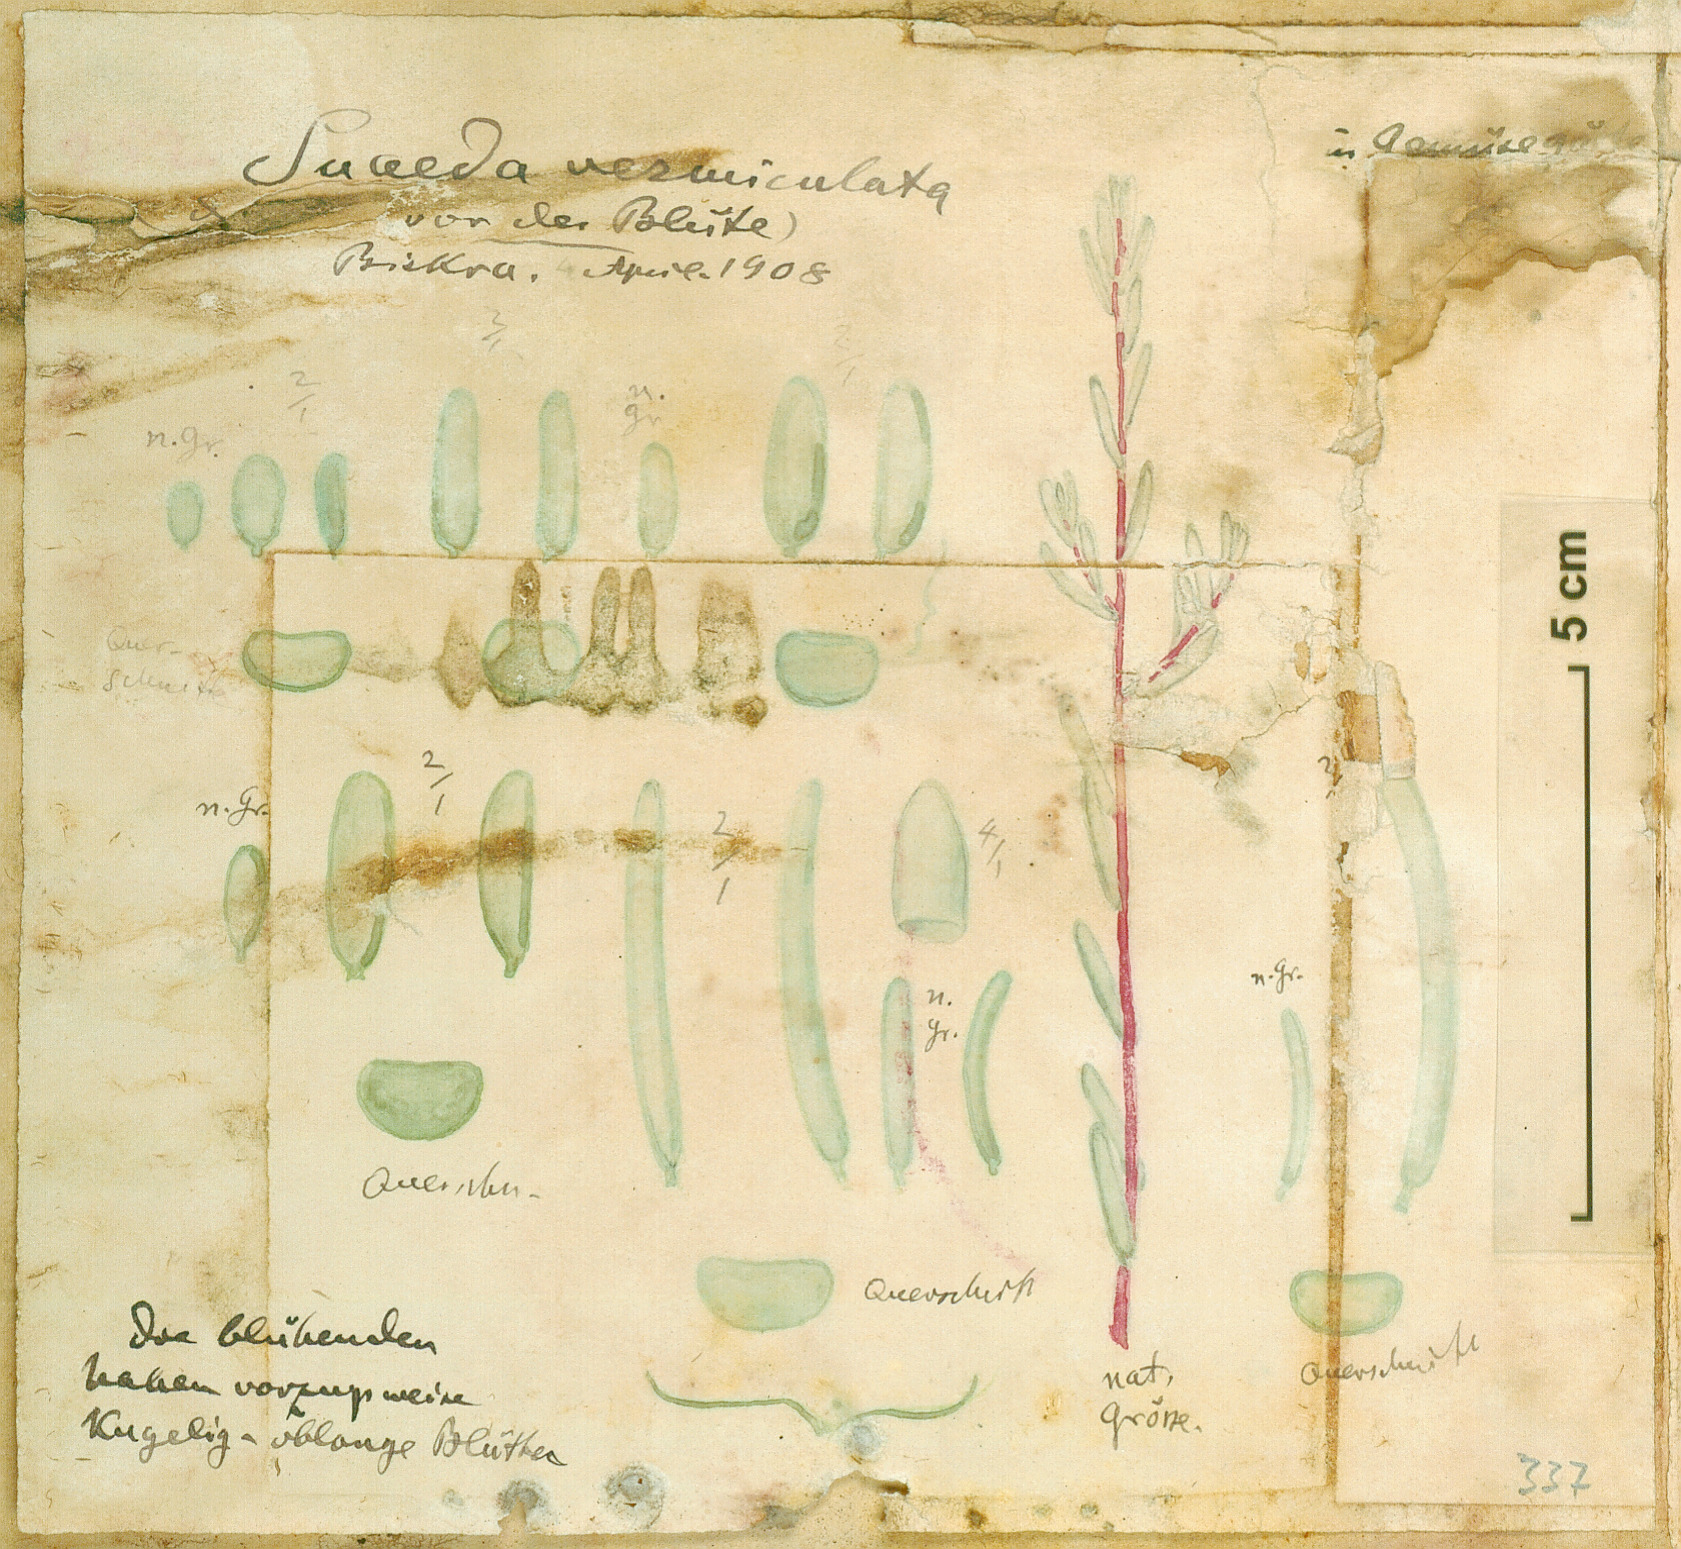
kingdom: Plantae
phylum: Tracheophyta
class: Magnoliopsida
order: Caryophyllales
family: Amaranthaceae
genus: Suaeda
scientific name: Suaeda vermiculata
